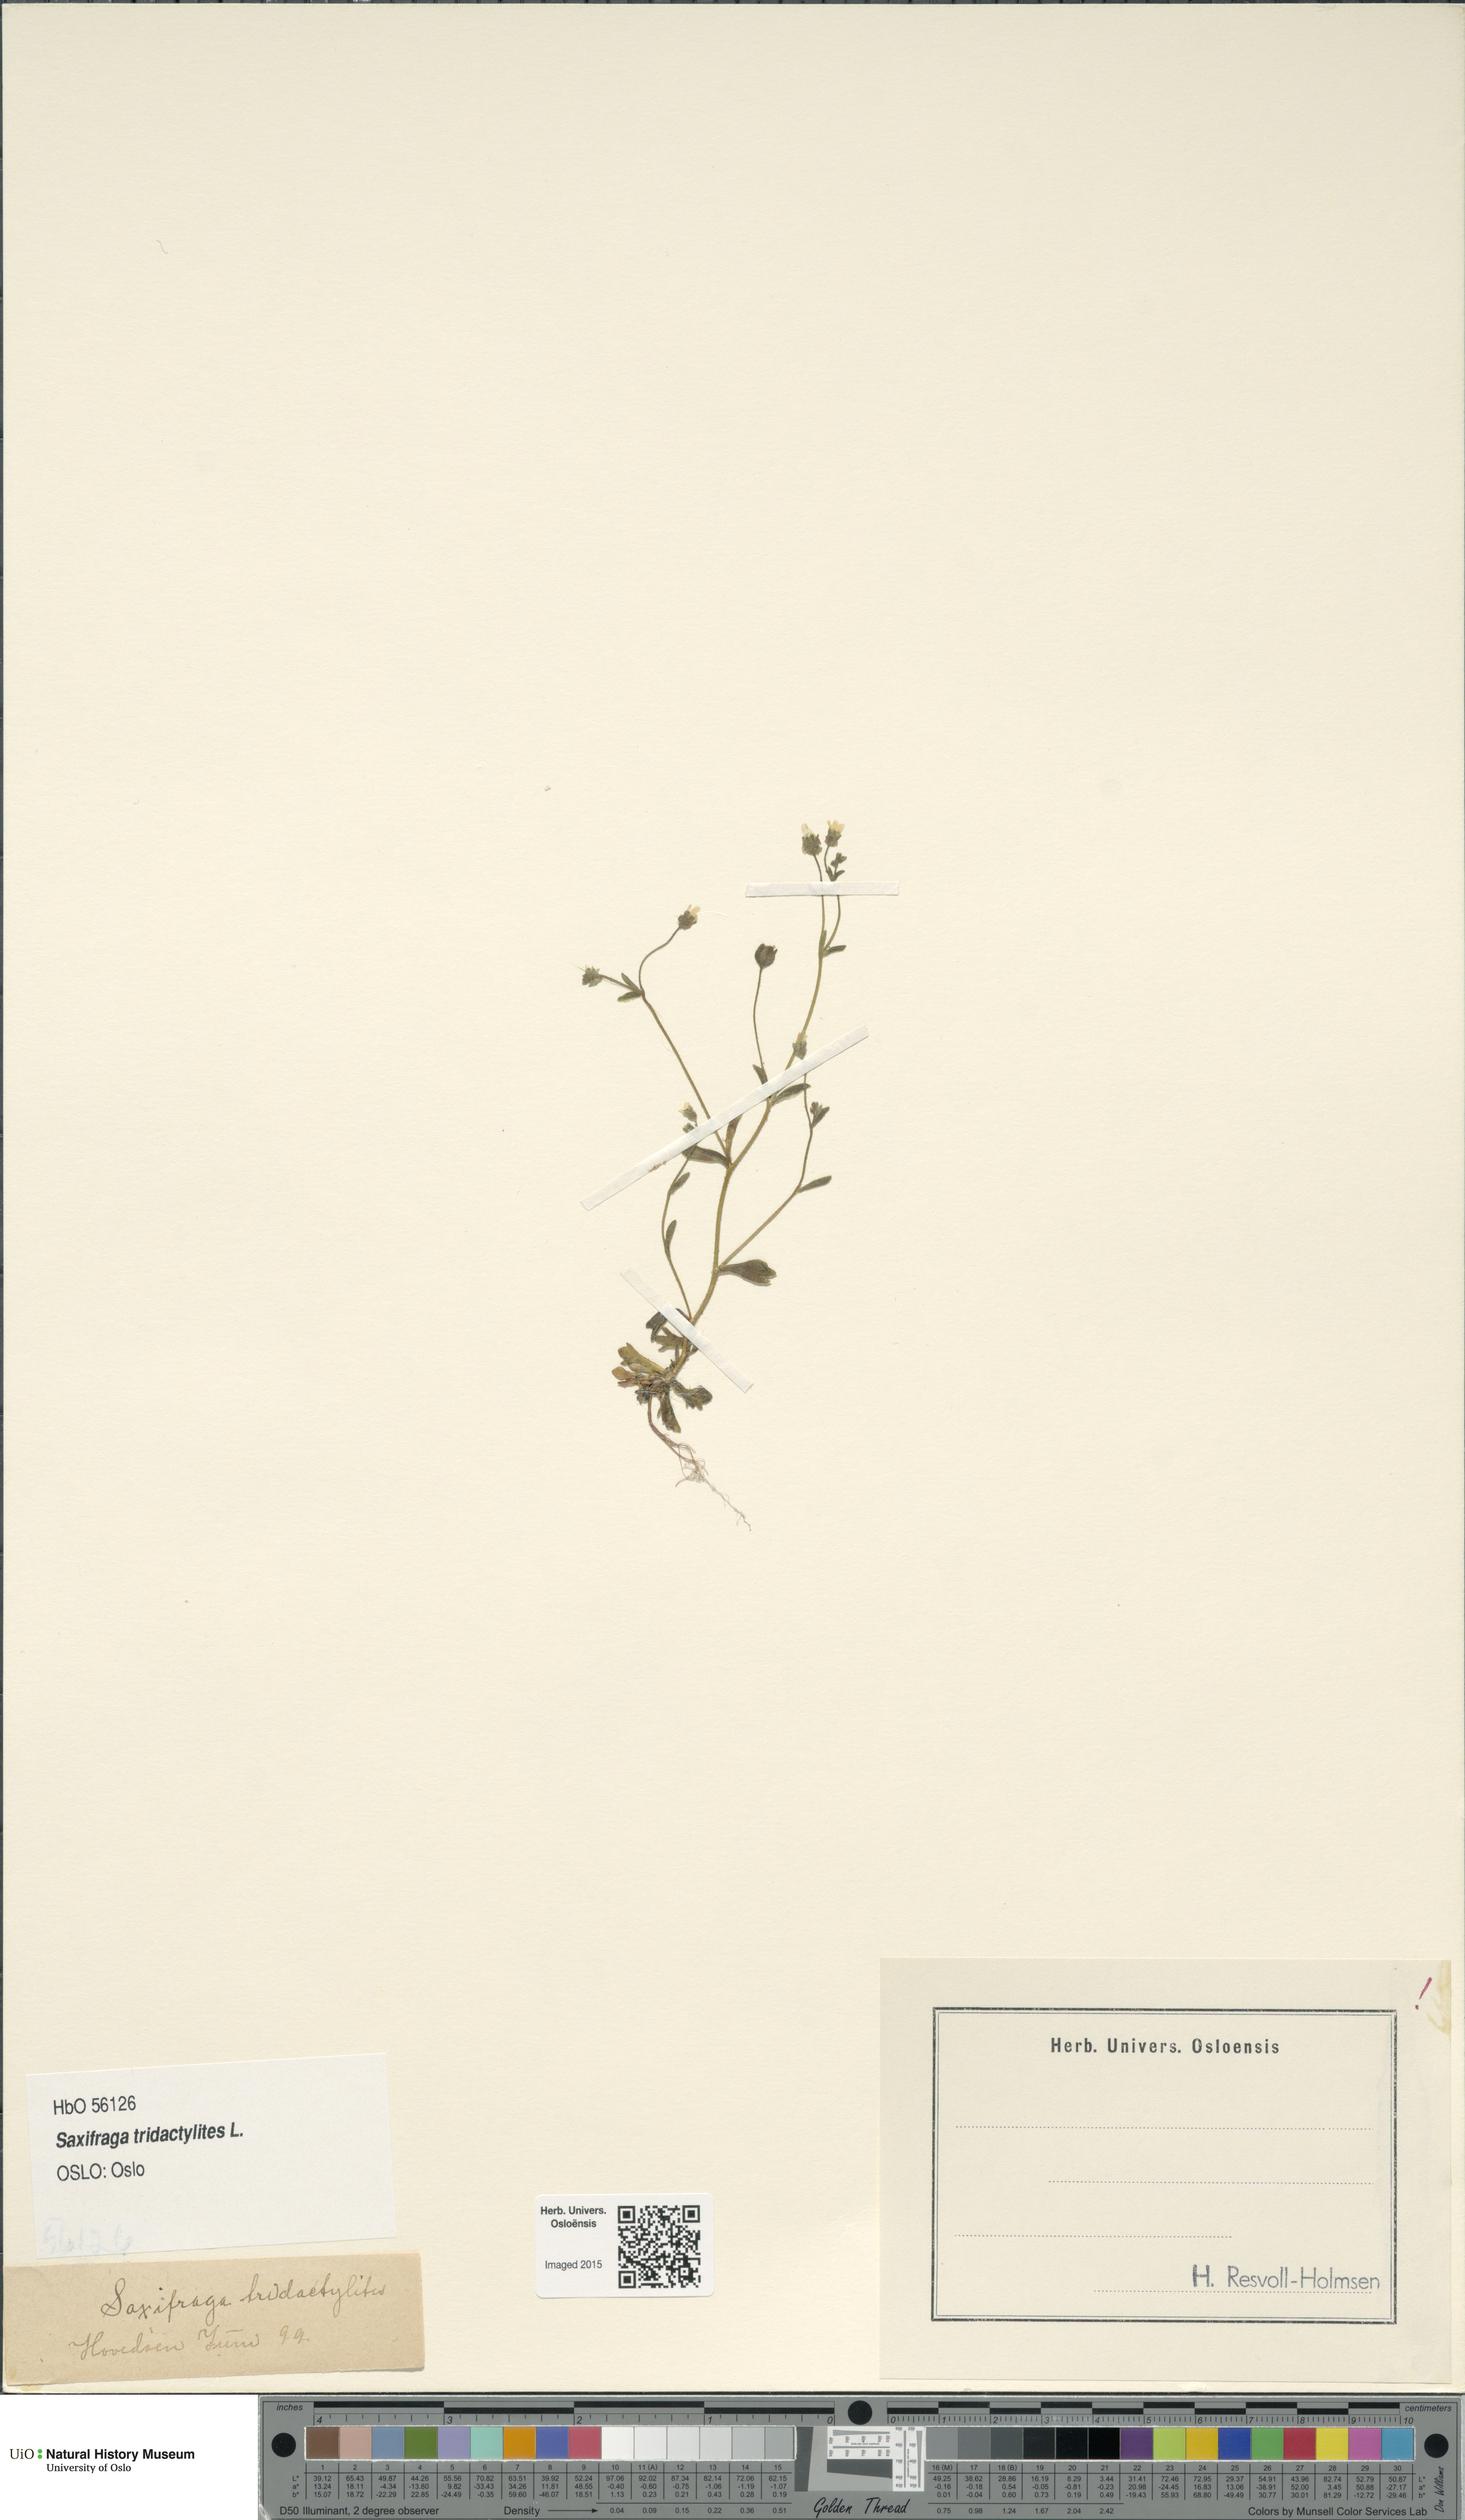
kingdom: Plantae
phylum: Tracheophyta
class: Magnoliopsida
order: Saxifragales
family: Saxifragaceae
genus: Saxifraga
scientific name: Saxifraga tridactylites
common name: Rue-leaved saxifrage
